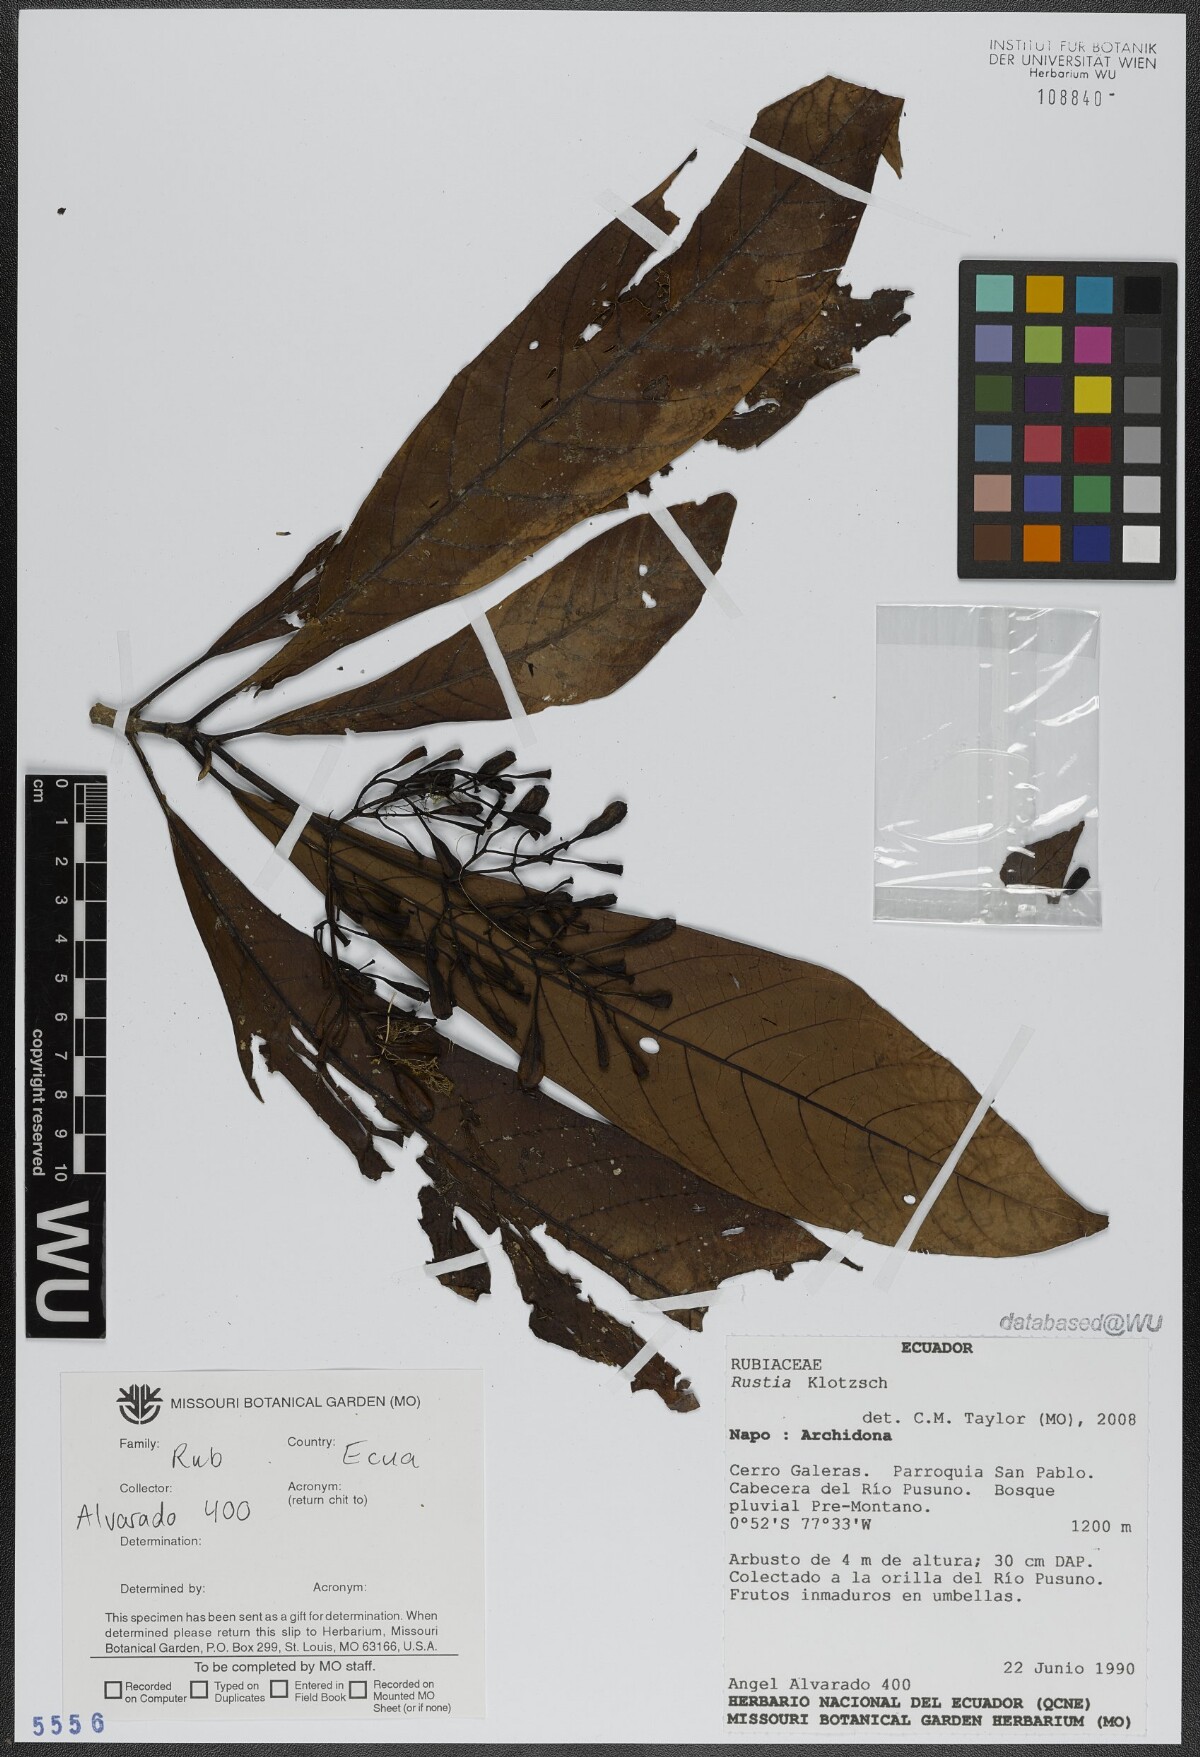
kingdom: Plantae
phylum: Tracheophyta
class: Magnoliopsida
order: Gentianales
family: Rubiaceae
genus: Rustia
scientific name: Rustia
